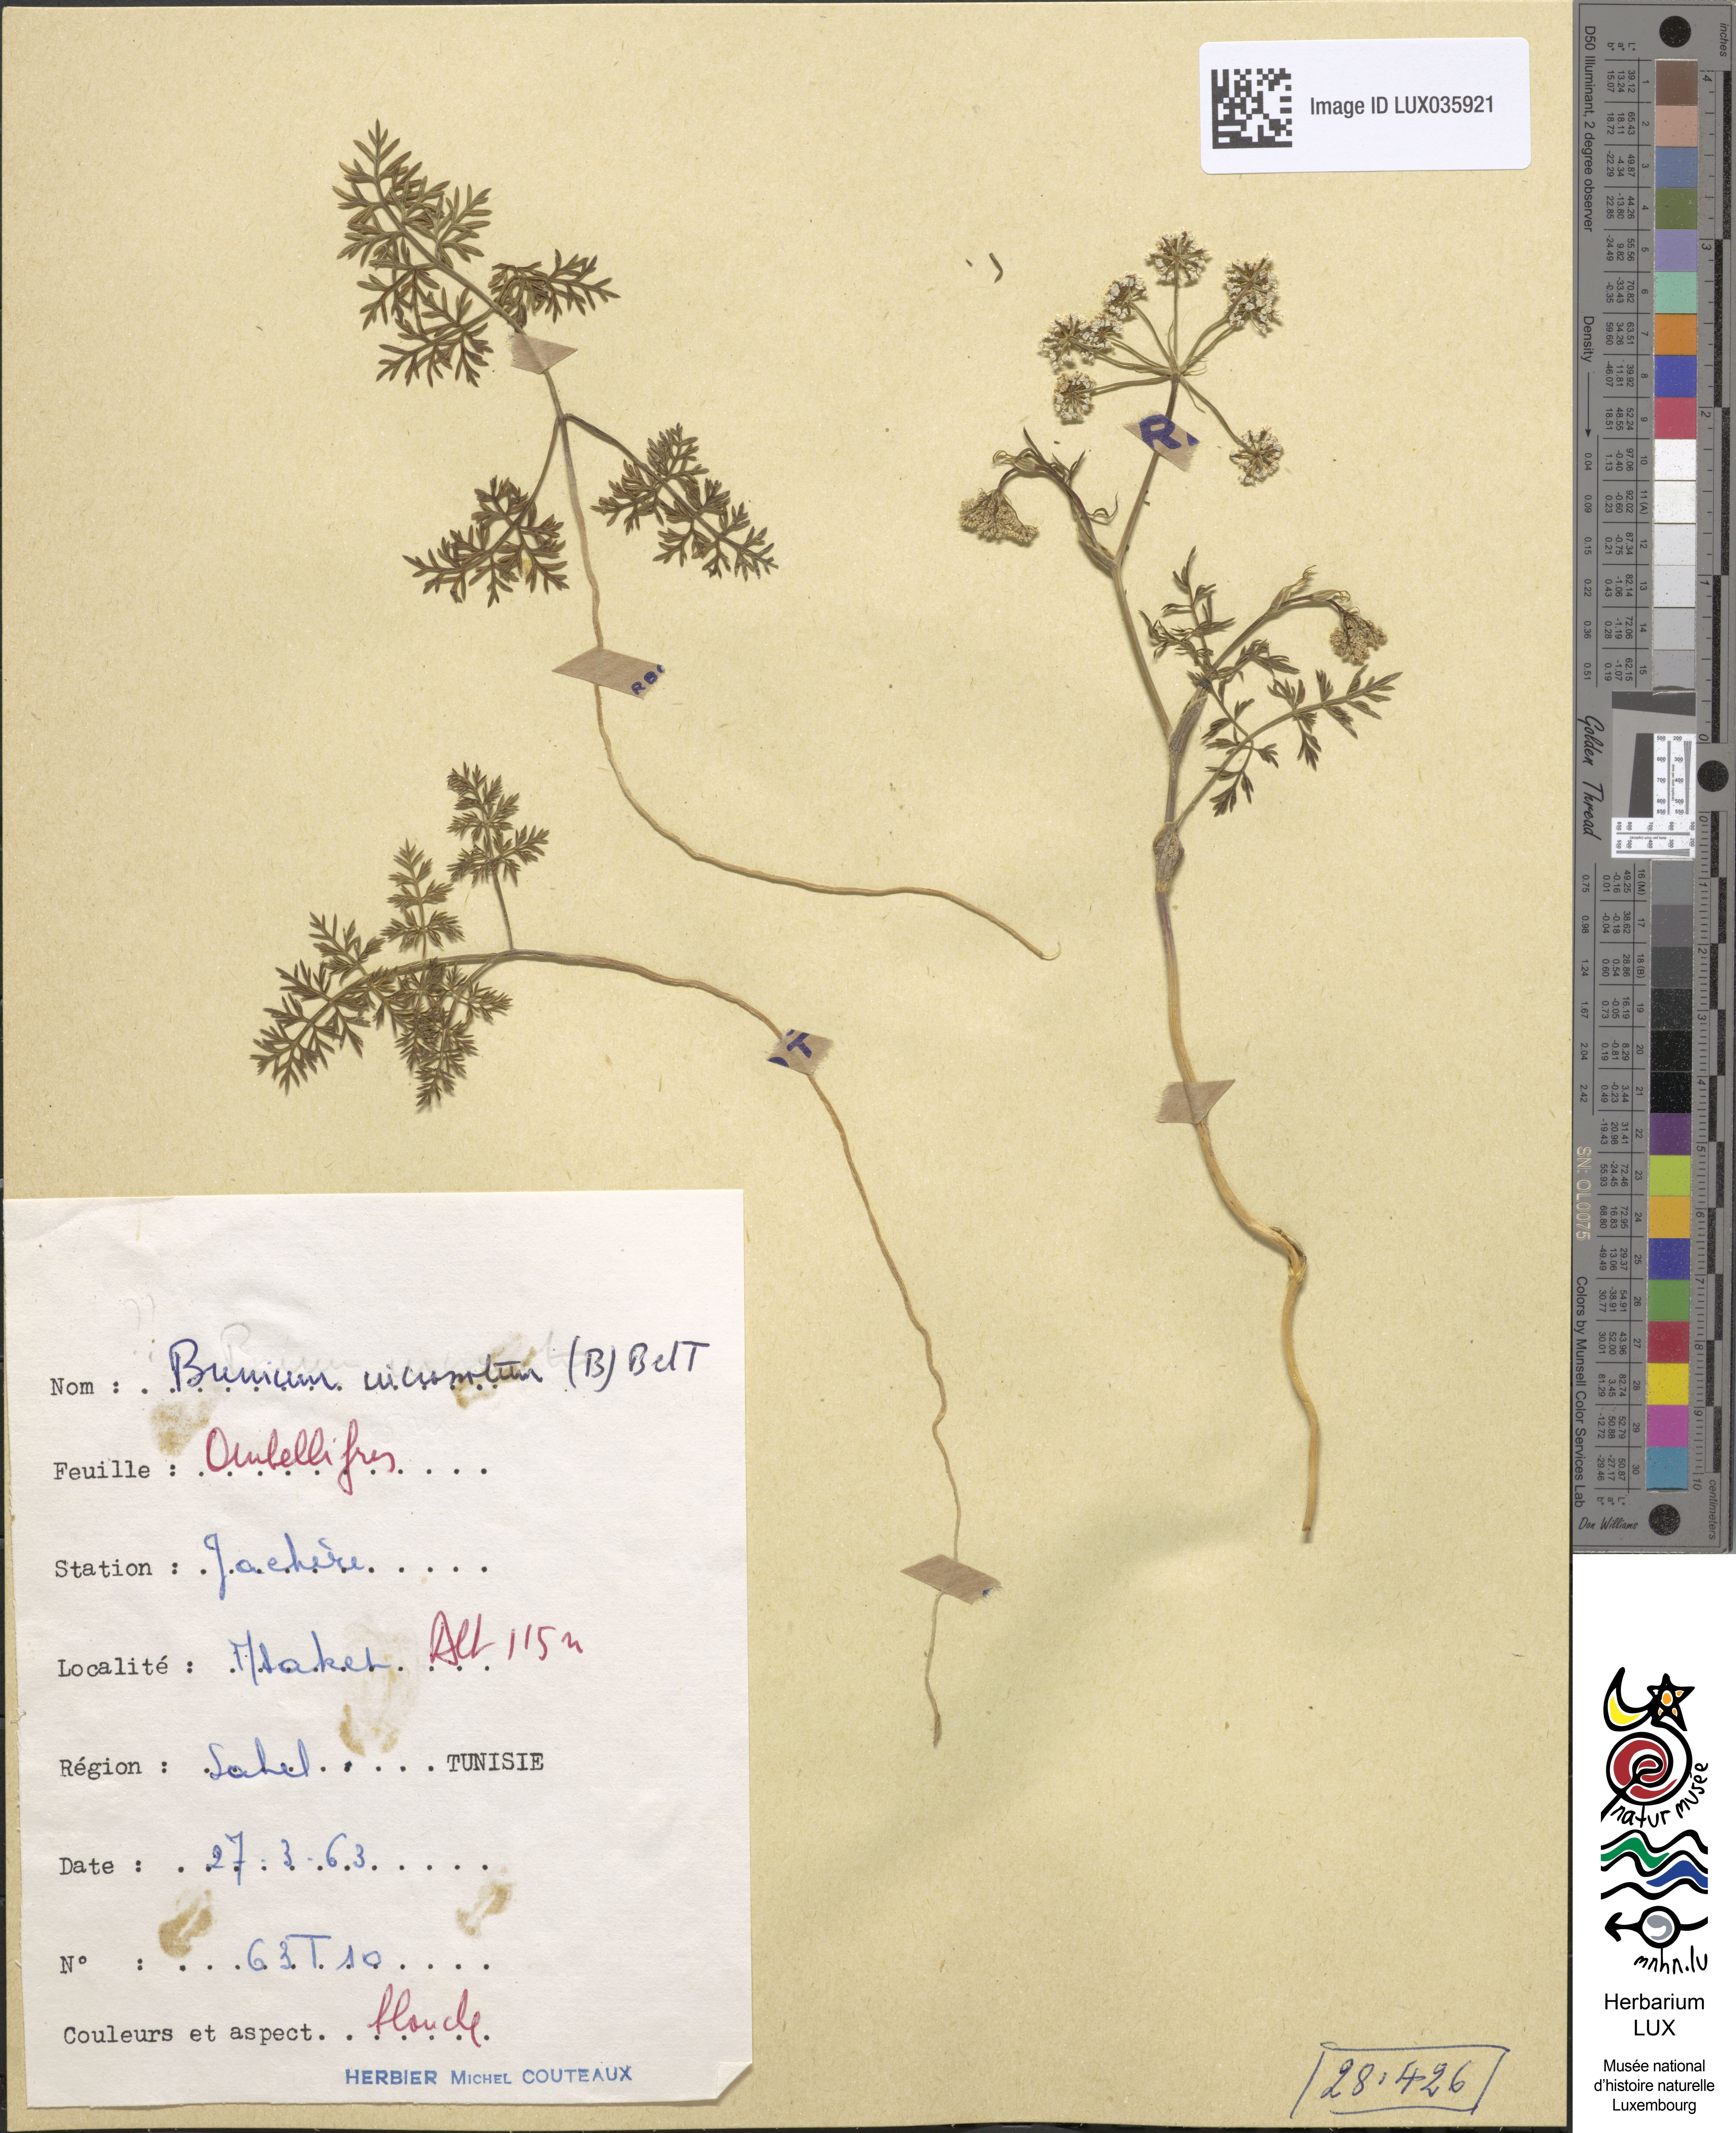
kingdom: Plantae
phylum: Tracheophyta
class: Magnoliopsida
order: Apiales
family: Apiaceae
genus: Bunium
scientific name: Bunium pachypodum
